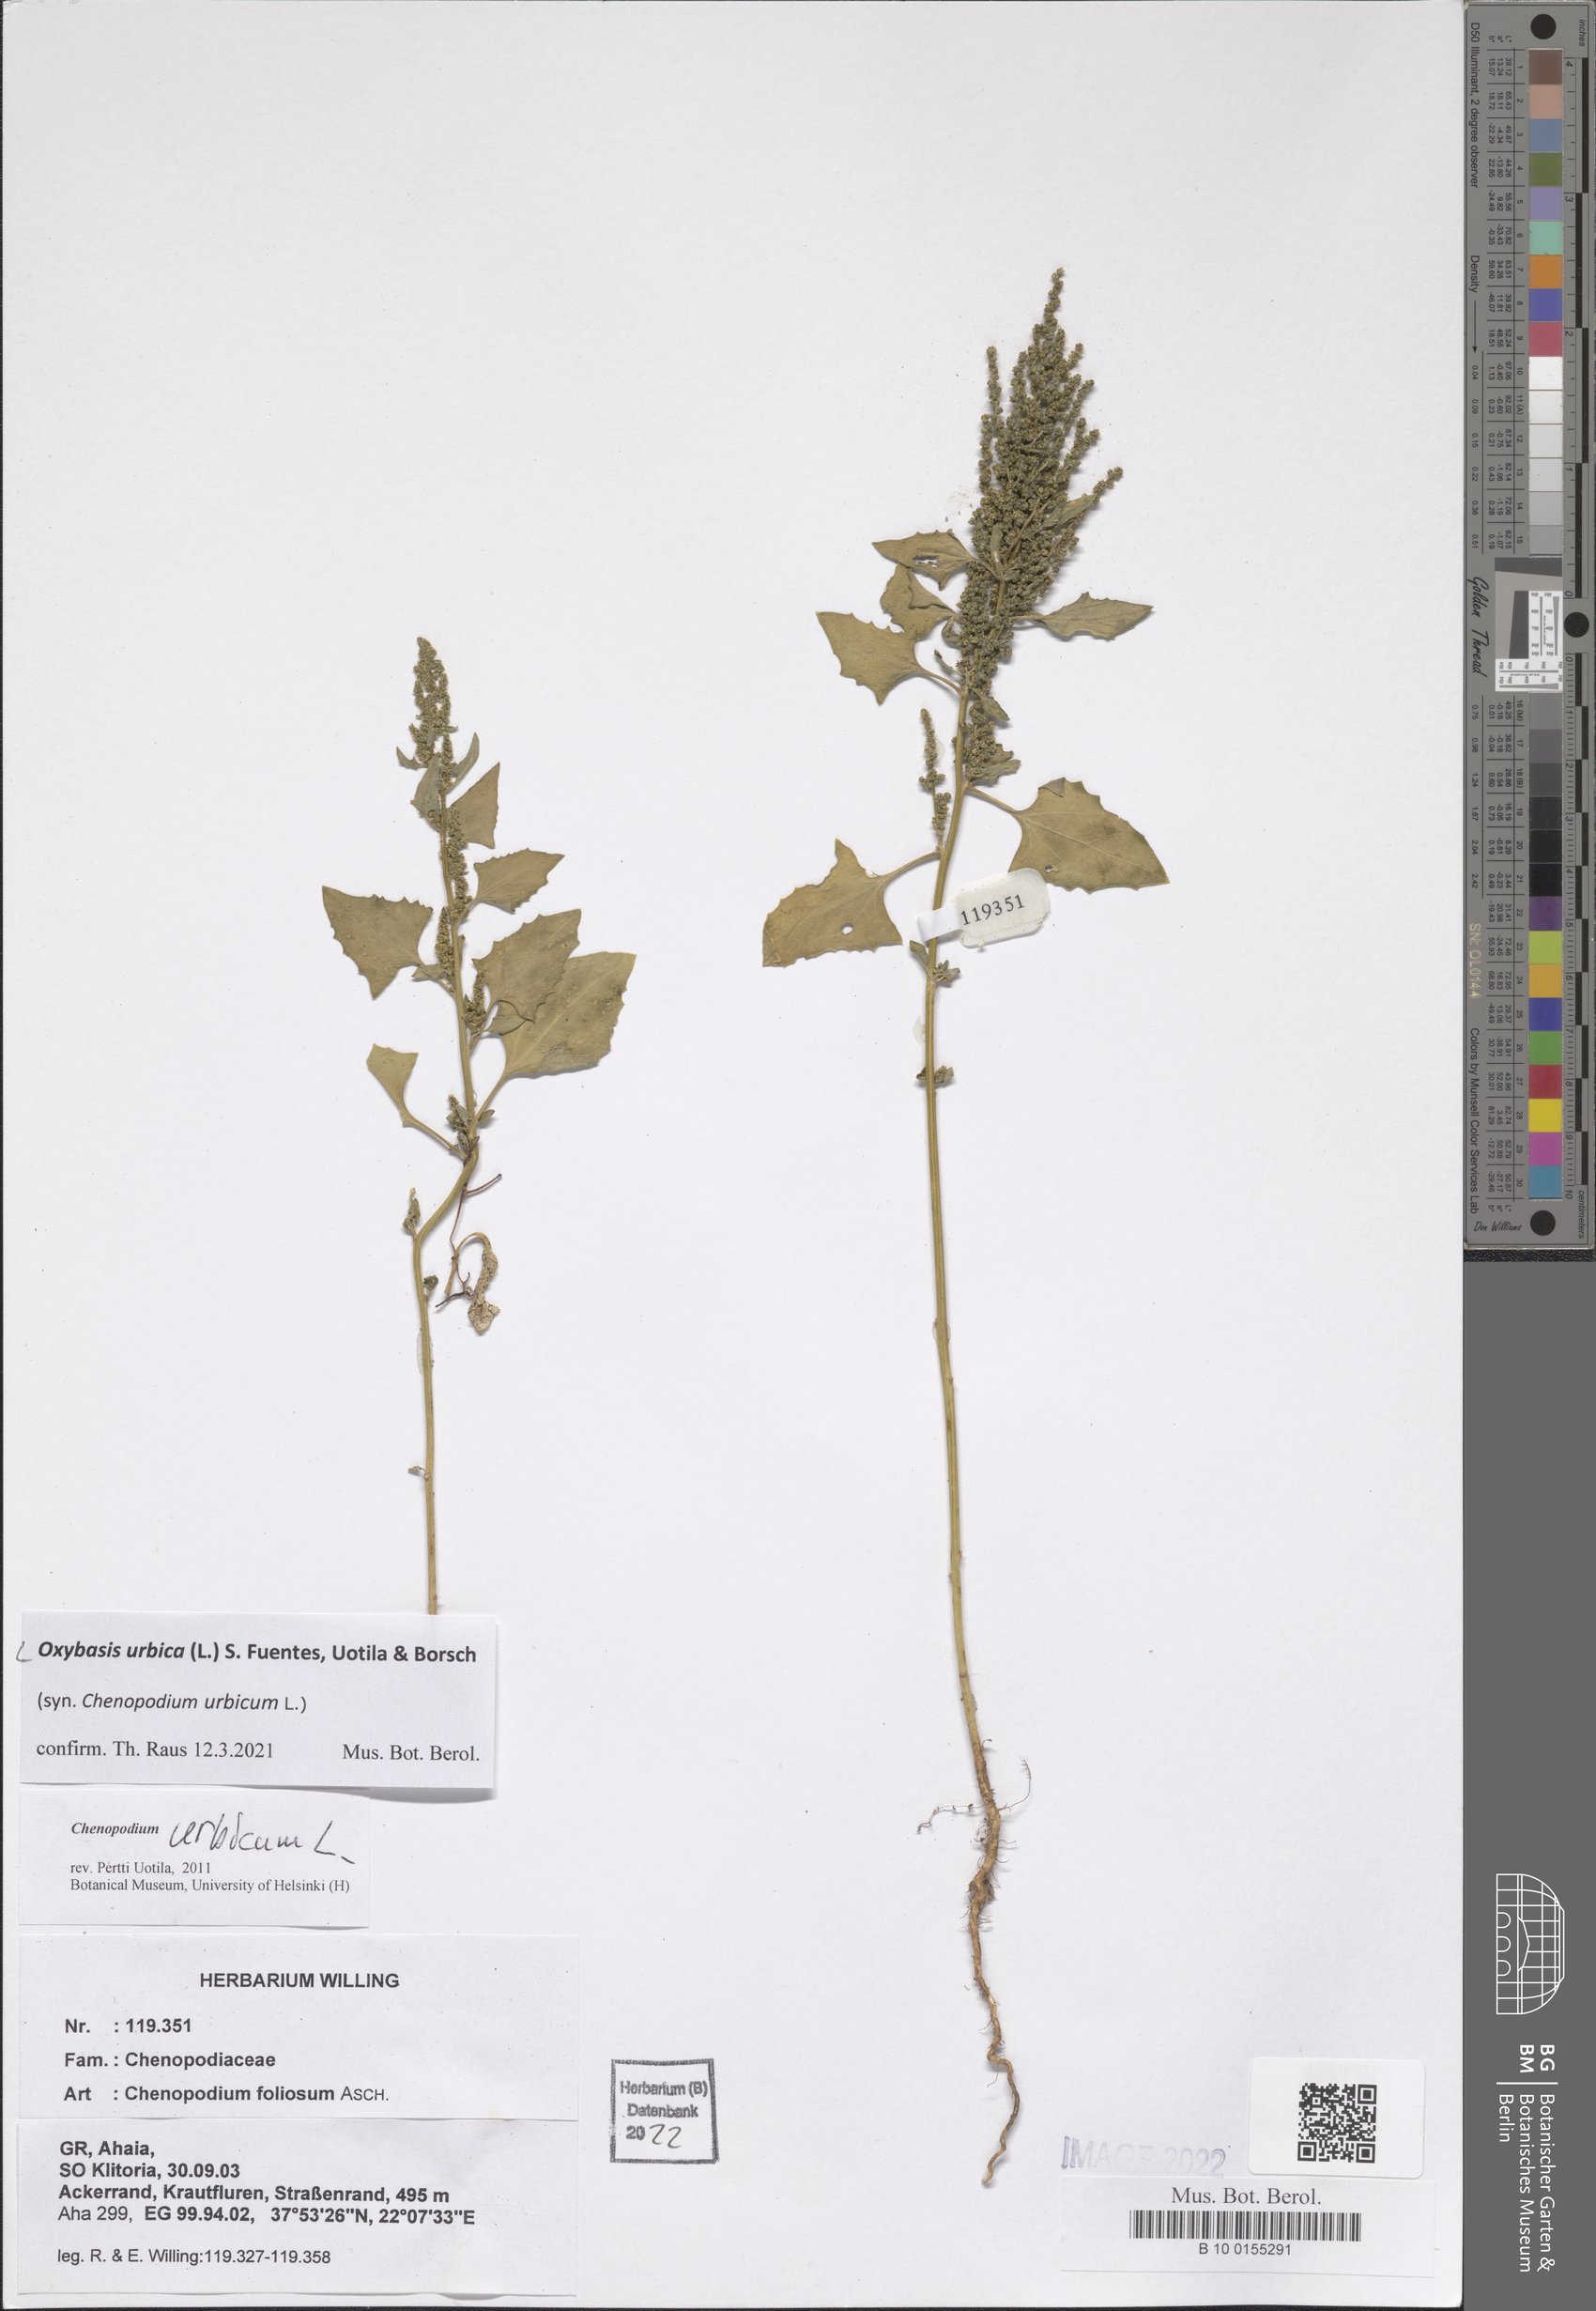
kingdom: Plantae
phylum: Tracheophyta
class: Magnoliopsida
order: Caryophyllales
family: Amaranthaceae
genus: Oxybasis
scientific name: Oxybasis urbica
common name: City goosefoot
